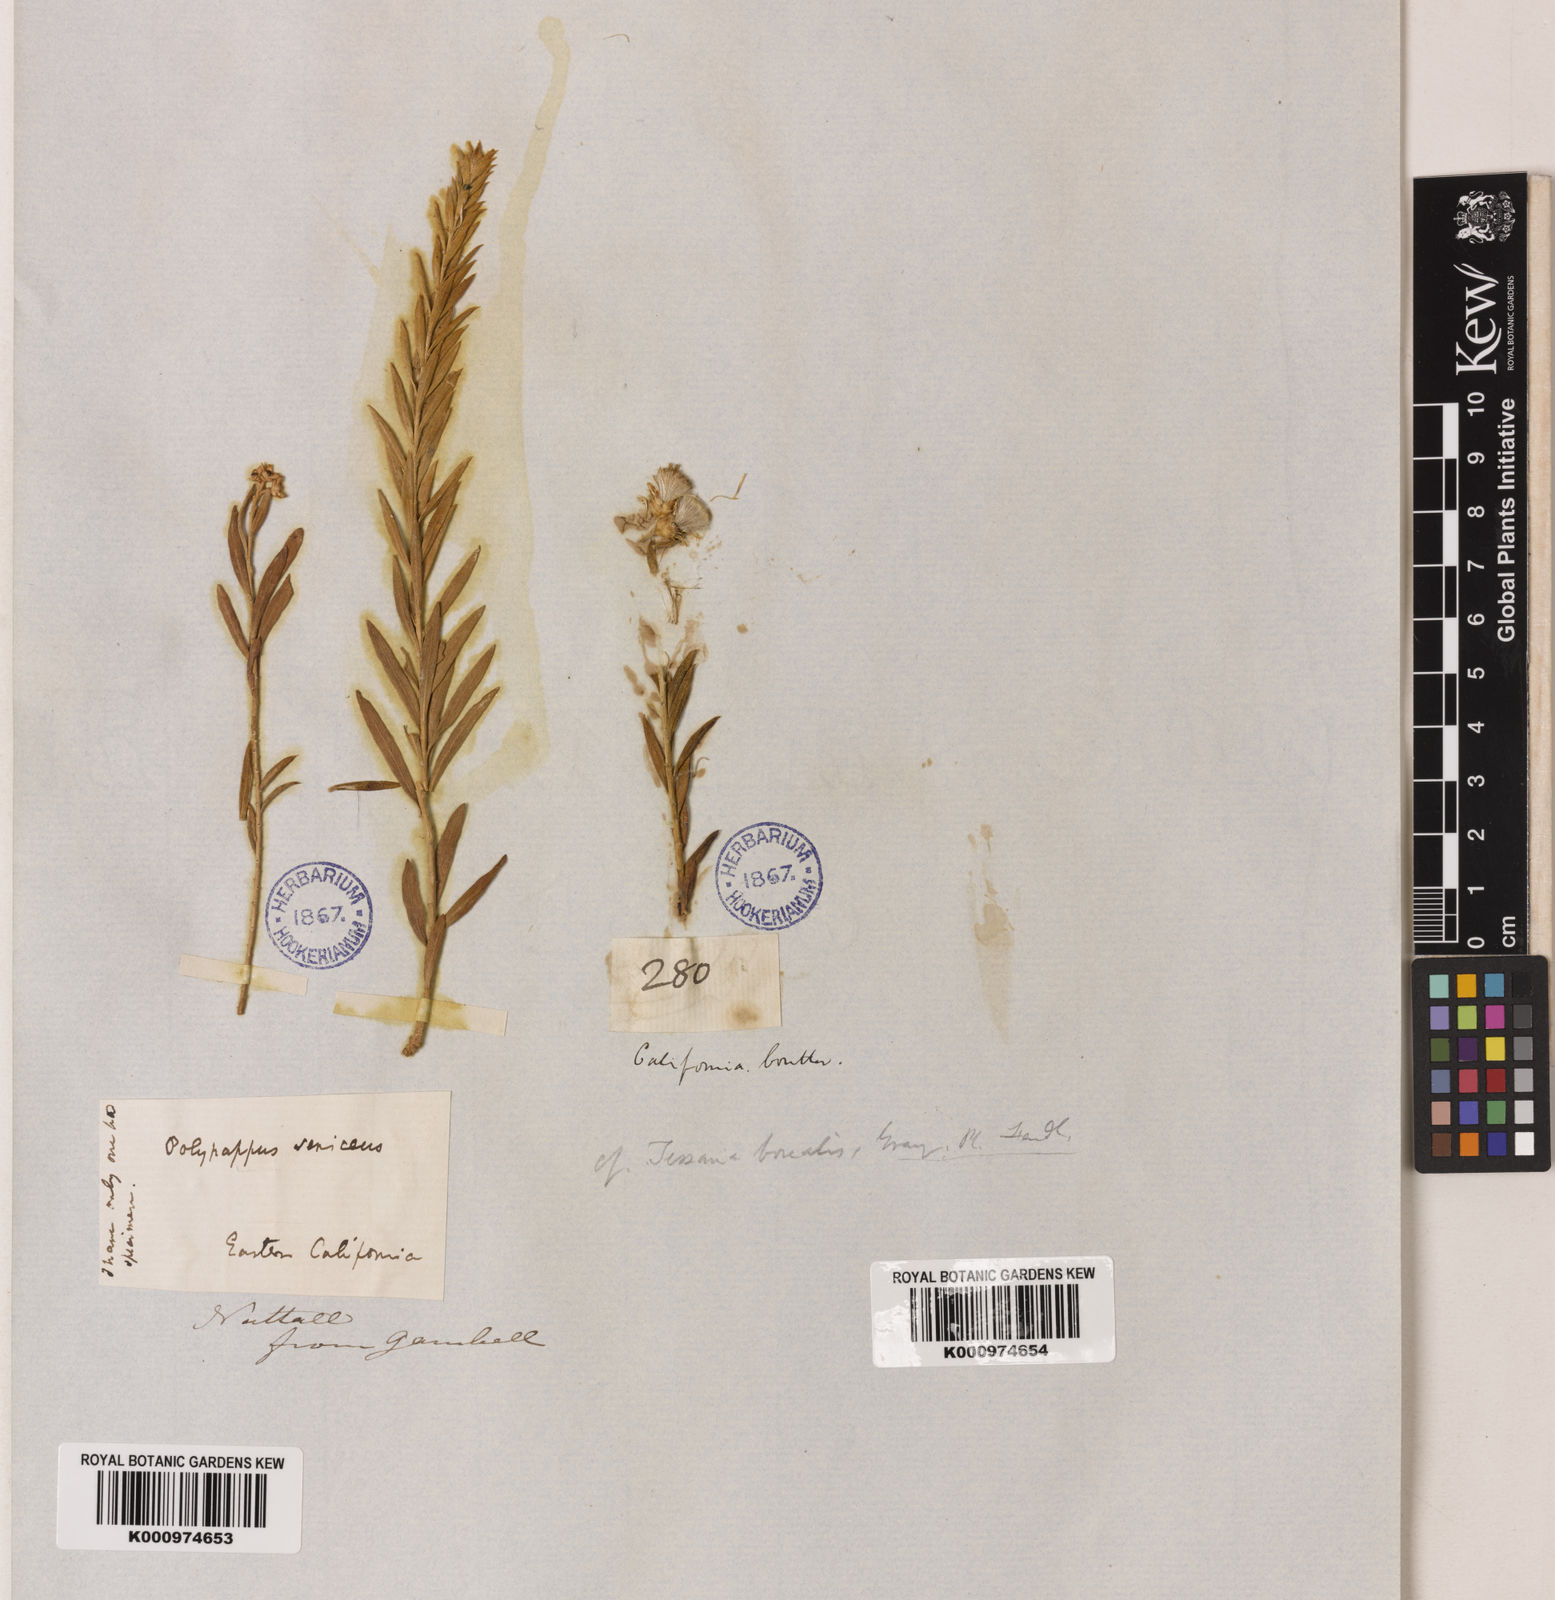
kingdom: Plantae
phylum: Tracheophyta
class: Magnoliopsida
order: Asterales
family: Asteraceae
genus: Pluchea
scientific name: Pluchea sericea
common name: Arrow-weed
